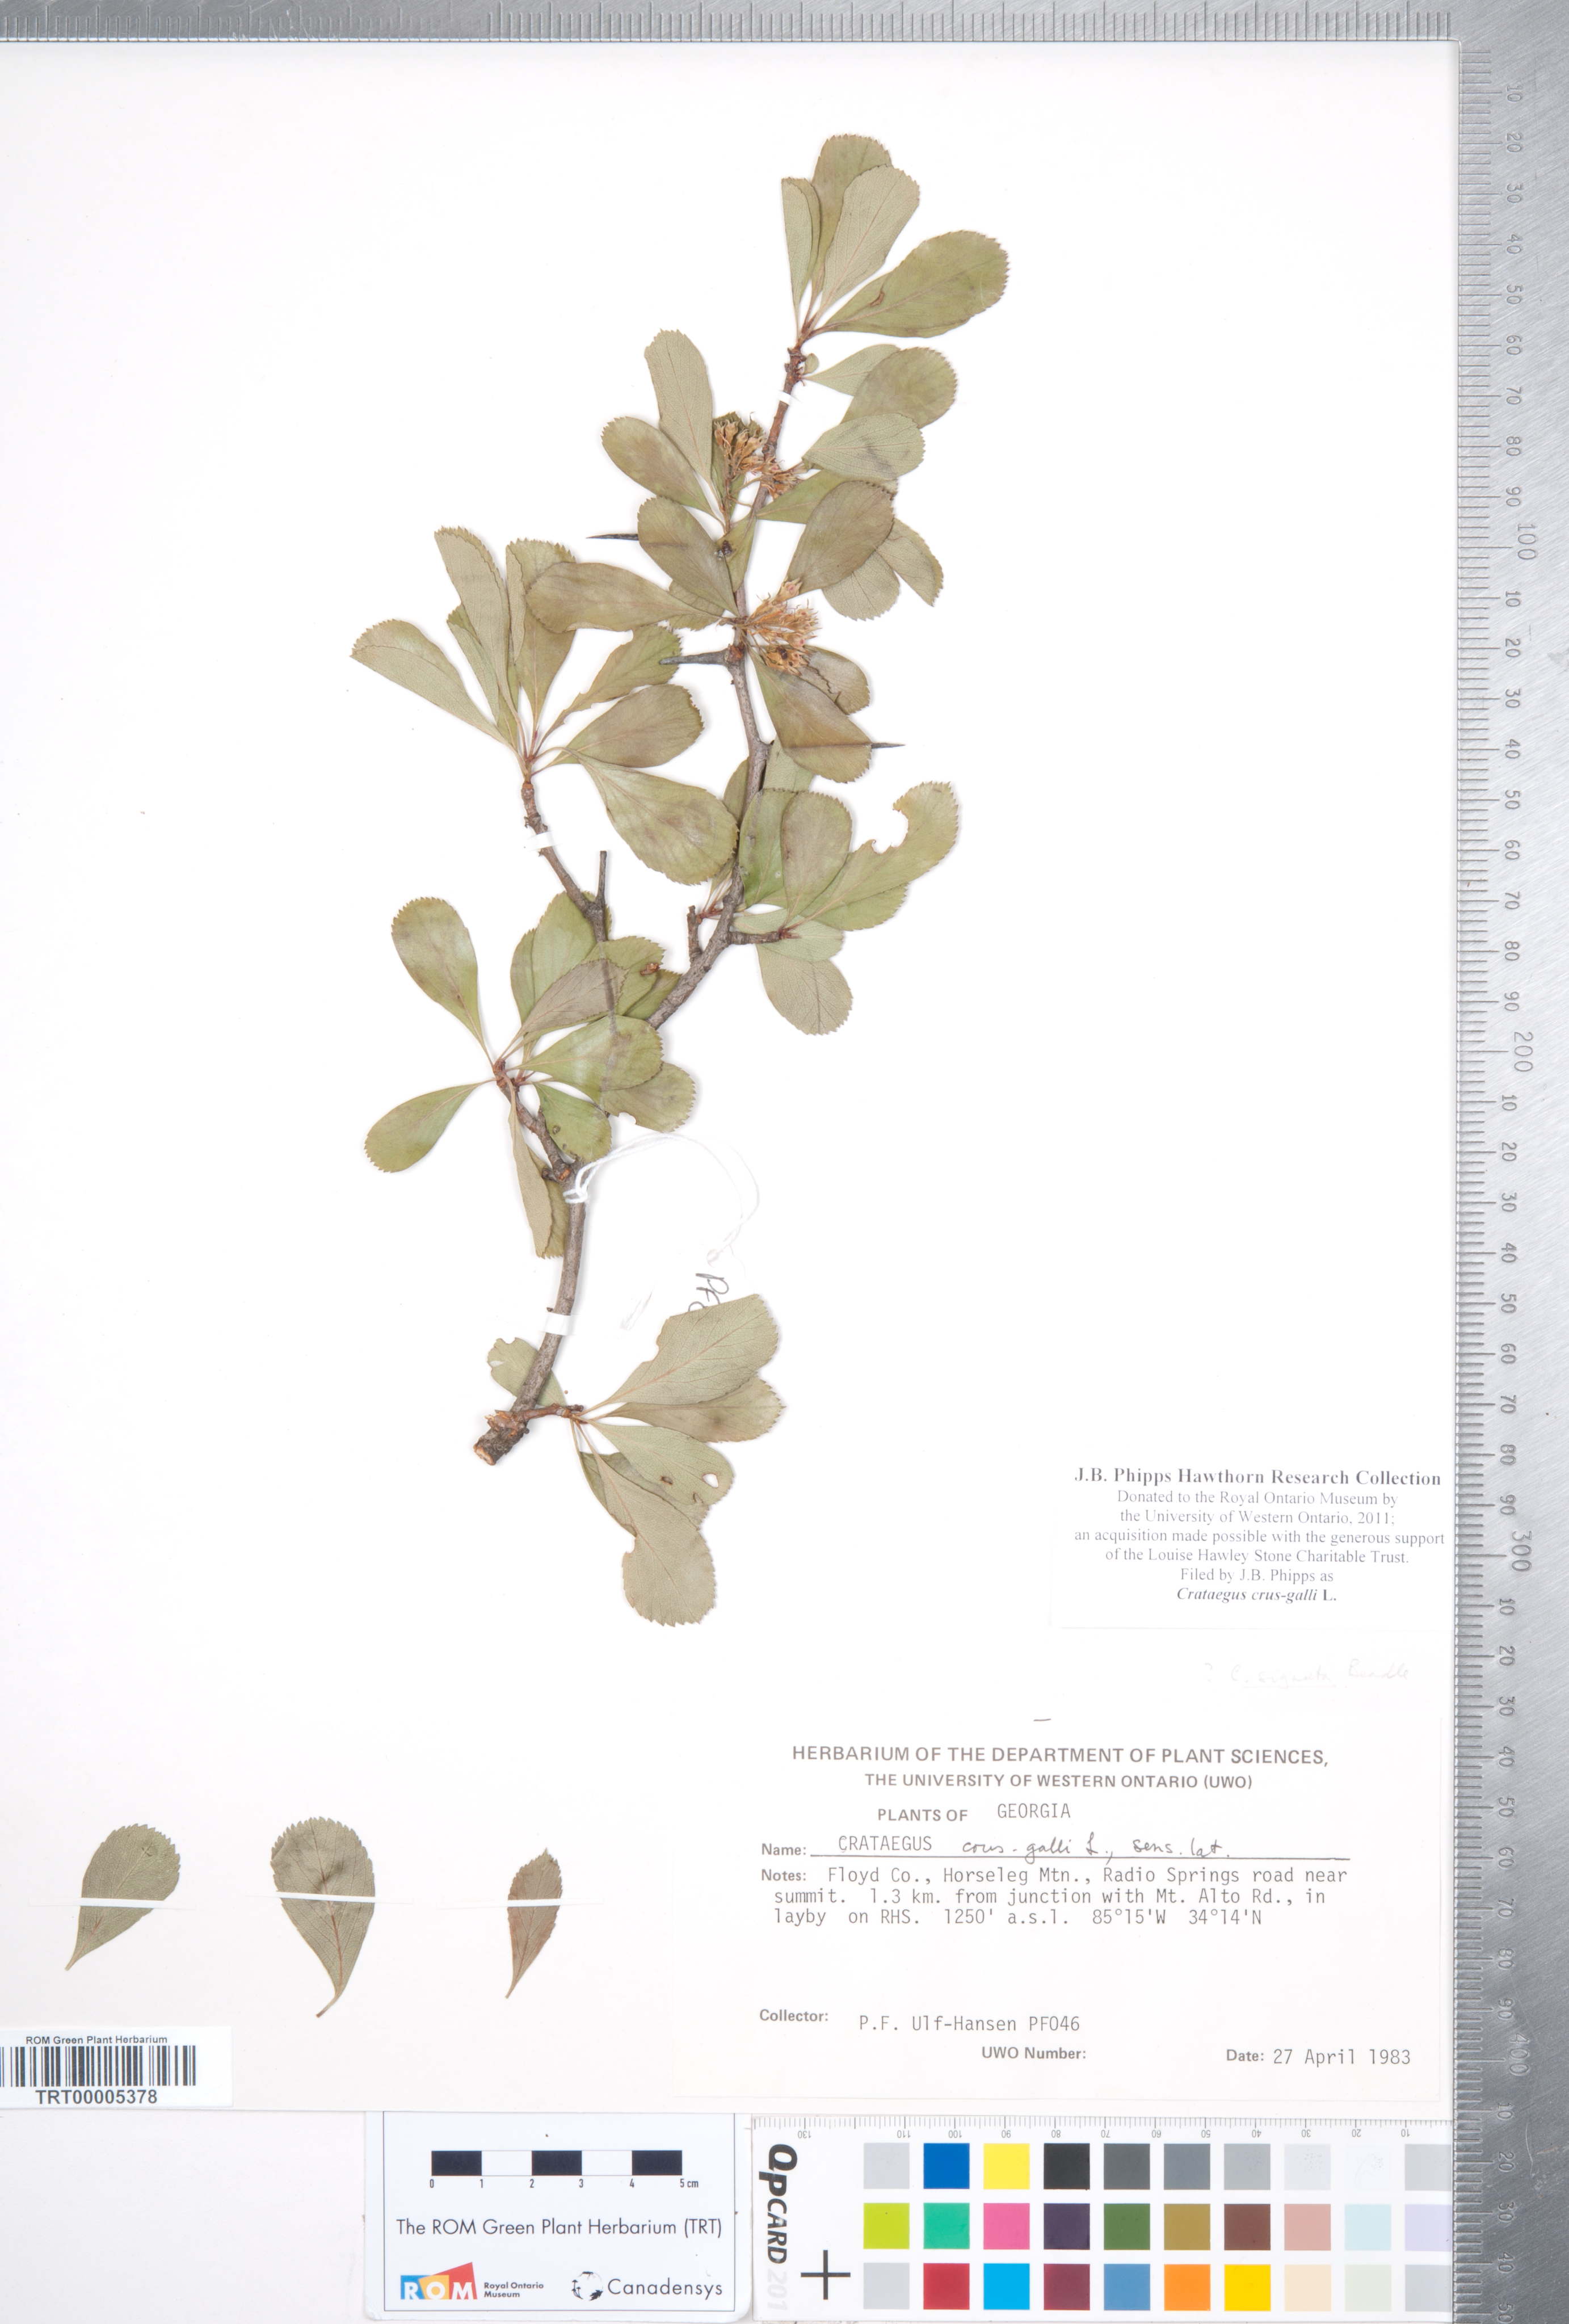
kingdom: Plantae
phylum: Tracheophyta
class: Magnoliopsida
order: Rosales
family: Rosaceae
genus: Crataegus
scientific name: Crataegus crus-galli
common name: Cockspurthorn
